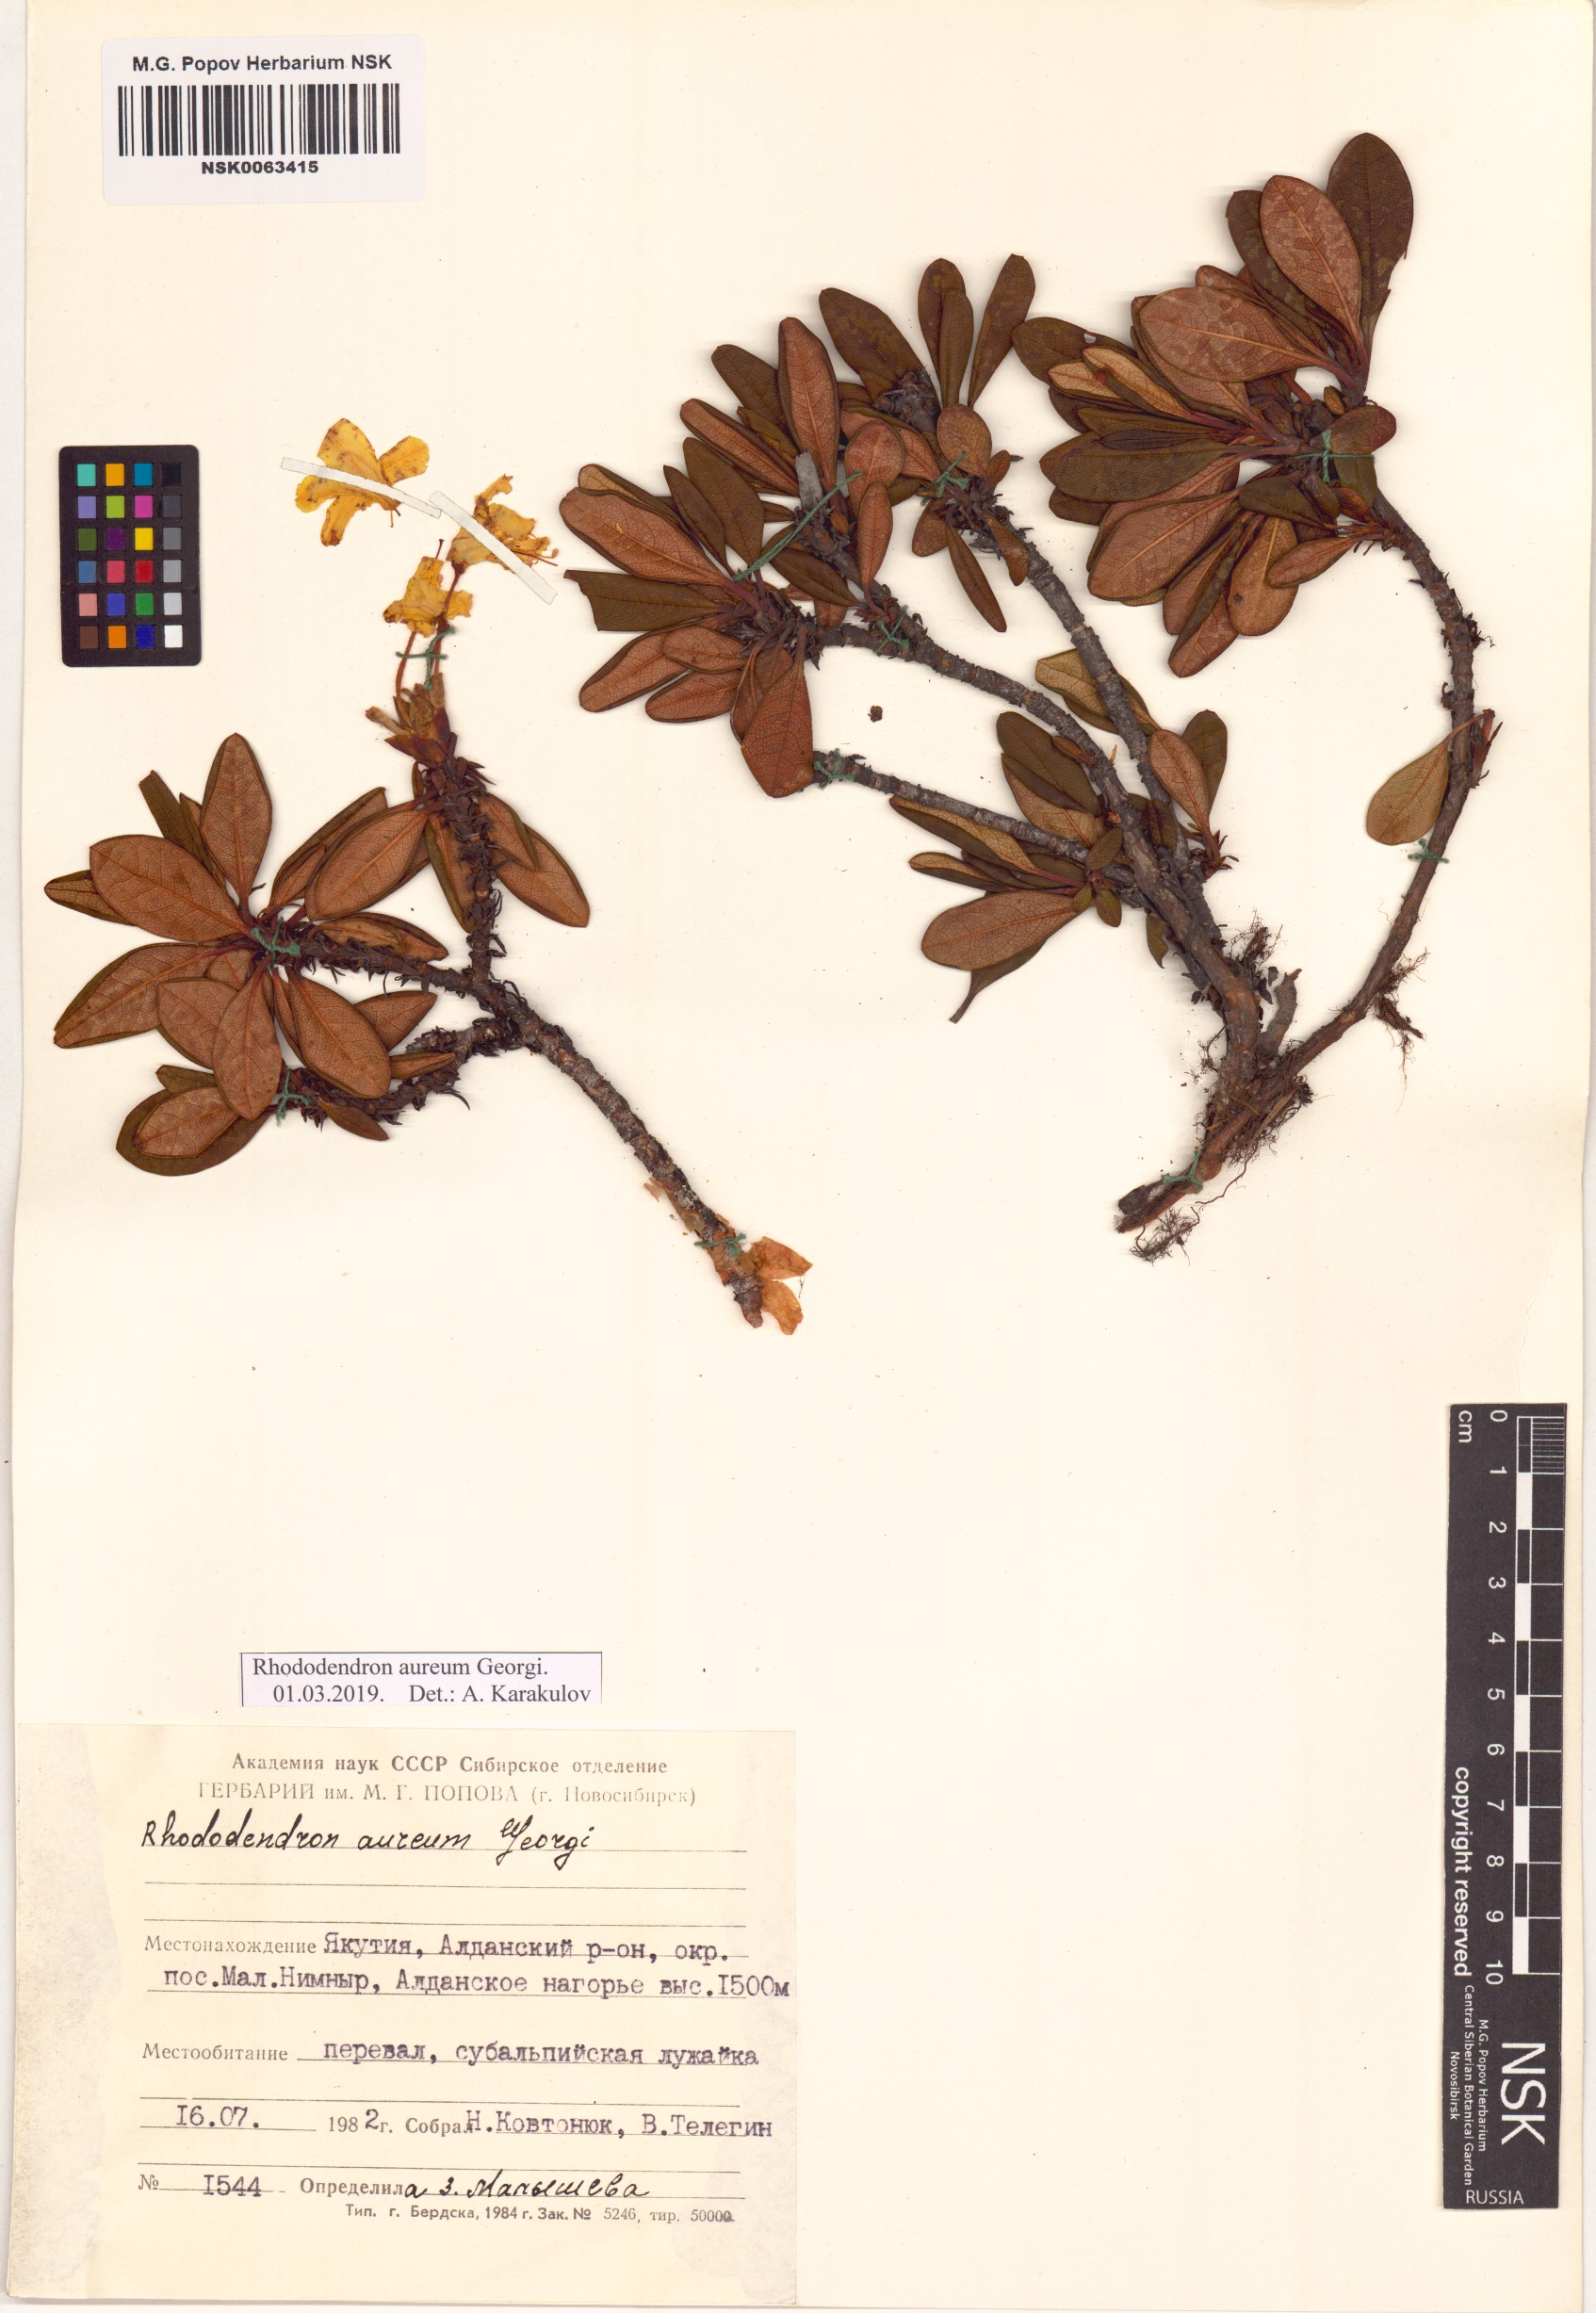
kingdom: Plantae
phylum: Tracheophyta
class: Magnoliopsida
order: Ericales
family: Ericaceae
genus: Rhododendron
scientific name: Rhododendron aureum
